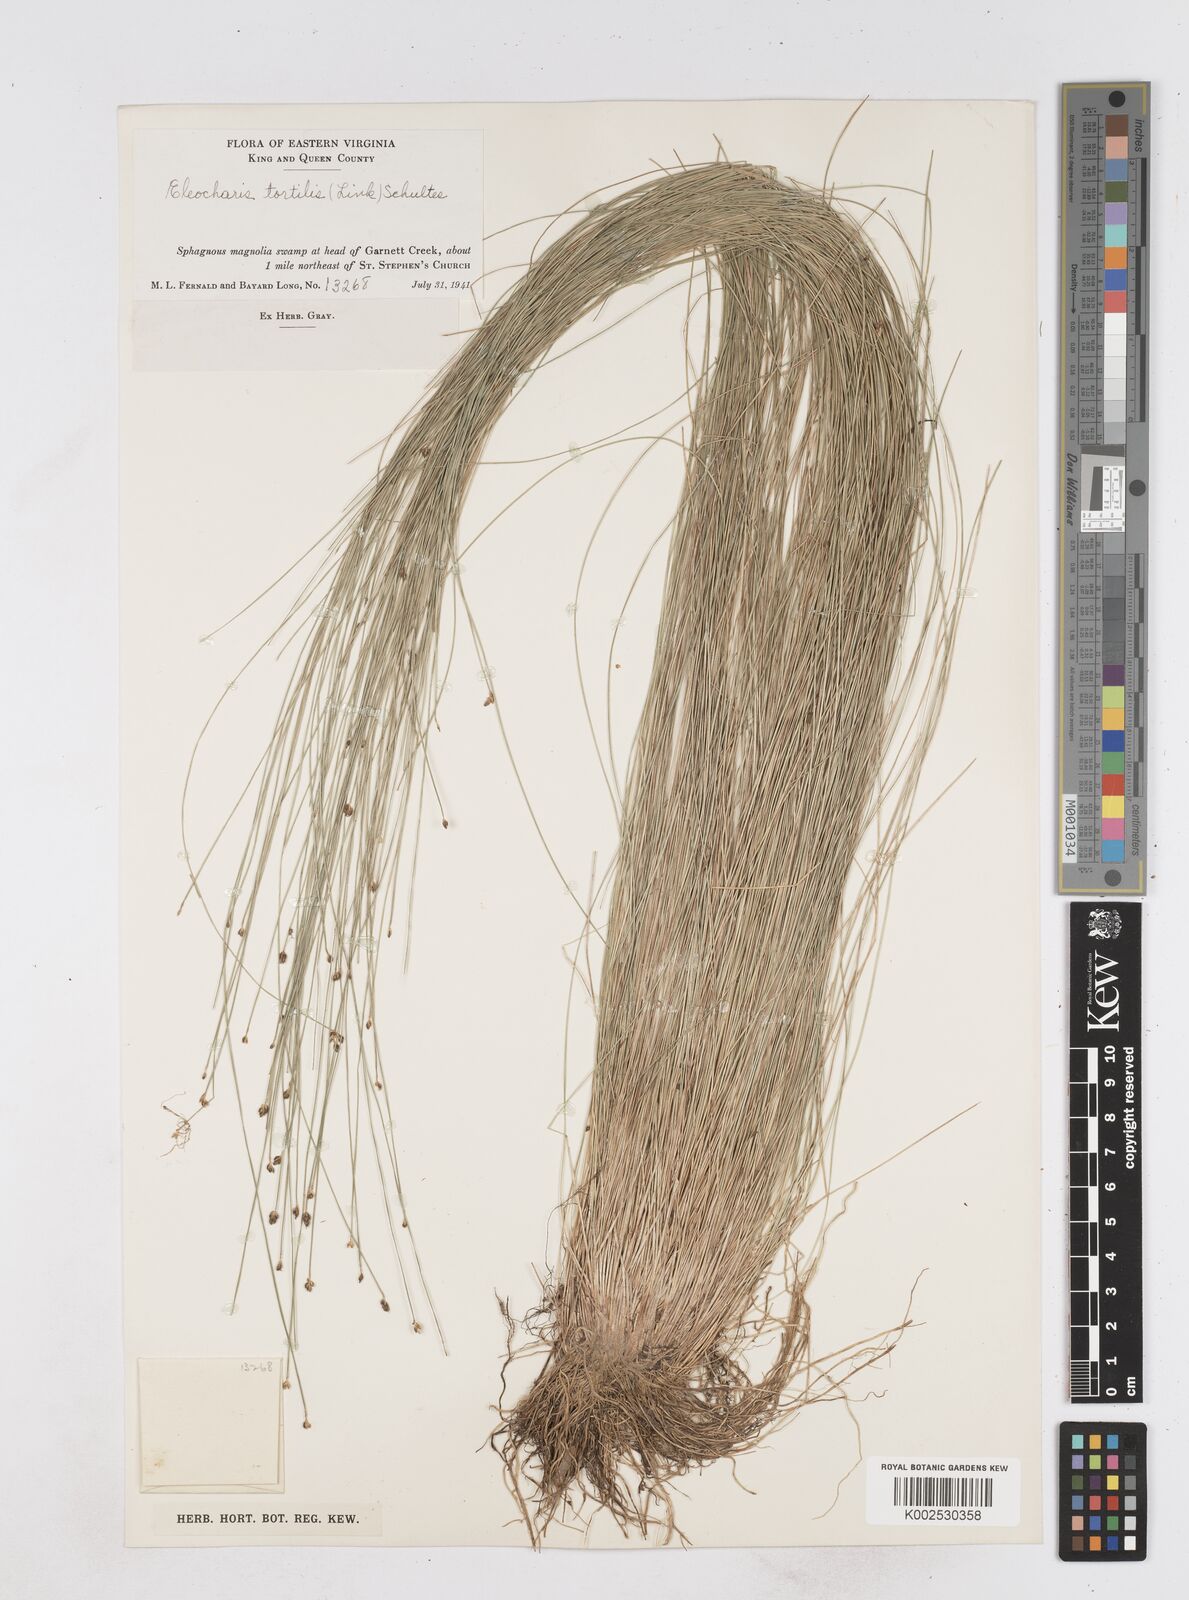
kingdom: Plantae
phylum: Tracheophyta
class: Liliopsida
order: Poales
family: Cyperaceae
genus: Eleocharis
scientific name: Eleocharis tortilis
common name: Twisted spike sedge
